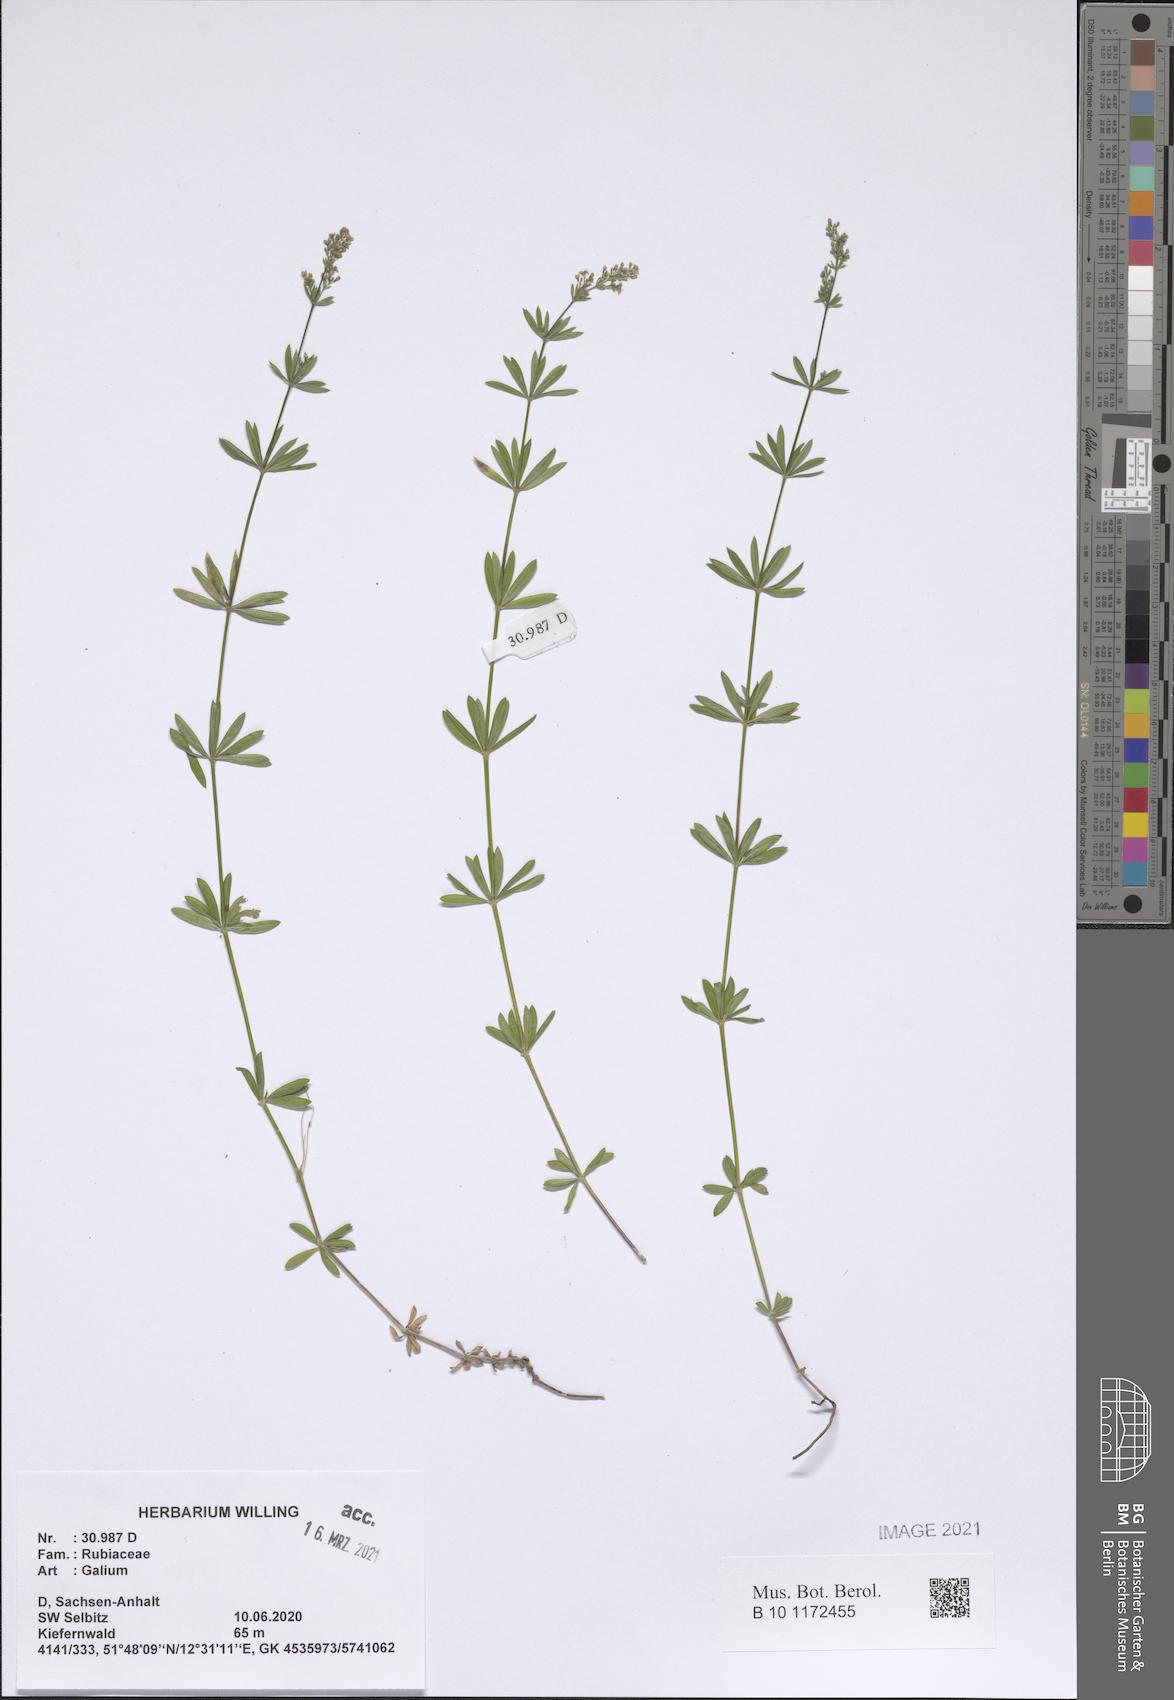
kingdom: Plantae
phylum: Tracheophyta
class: Magnoliopsida
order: Gentianales
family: Rubiaceae
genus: Galium
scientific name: Galium
